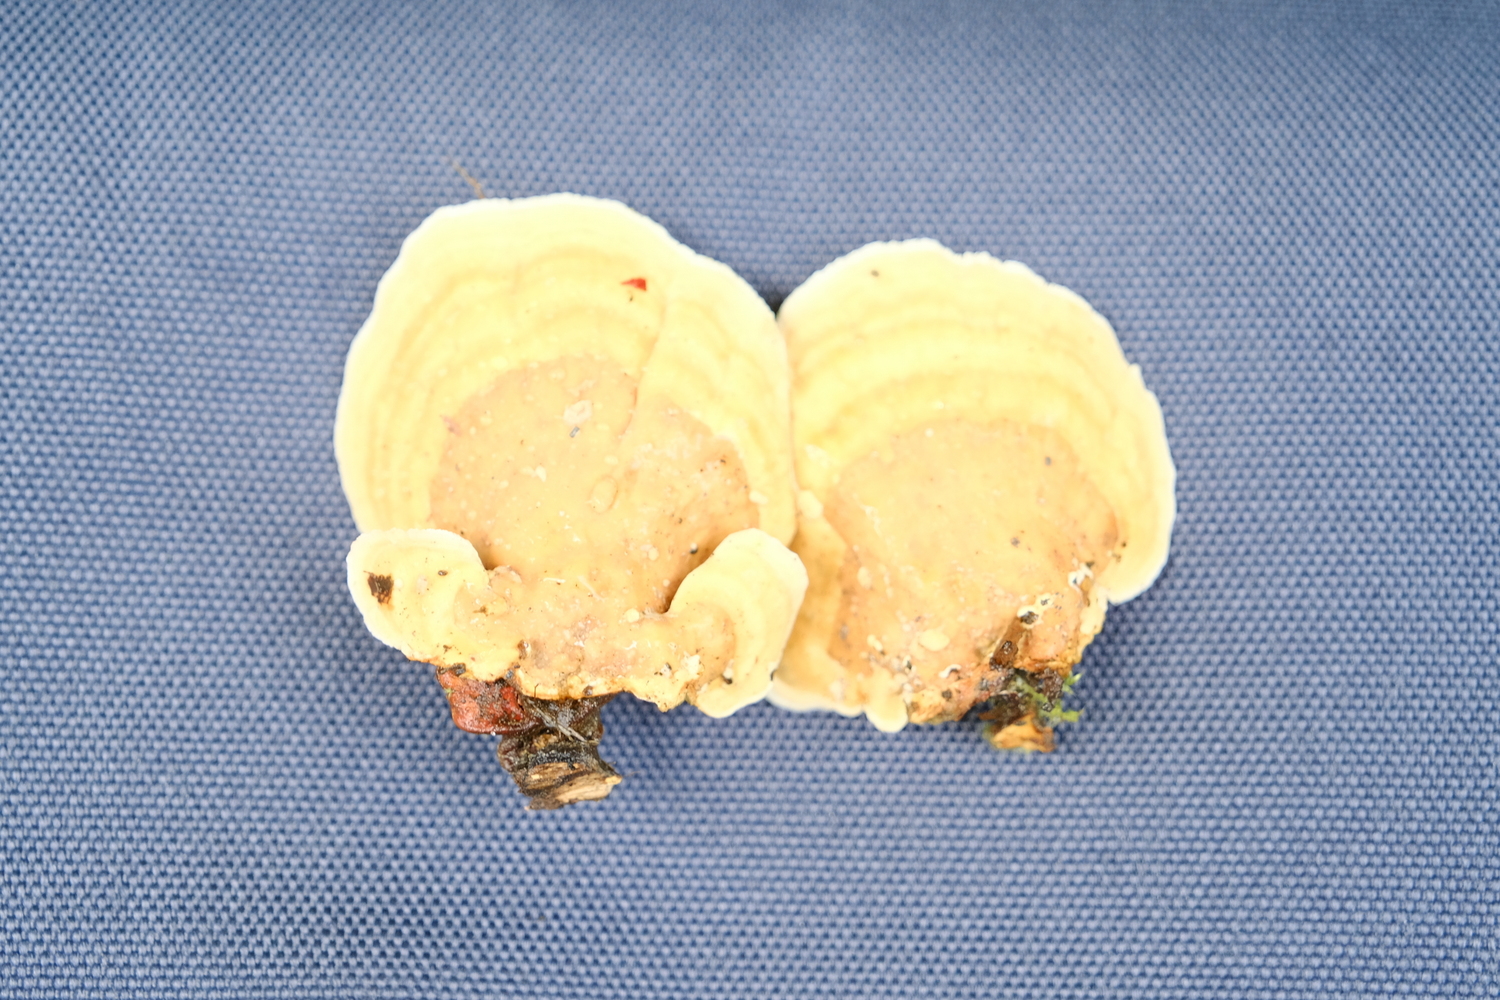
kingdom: Fungi
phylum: Basidiomycota
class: Agaricomycetes
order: Russulales
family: Stereaceae
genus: Stereum
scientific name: Stereum subtomentosum
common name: smuk lædersvamp
